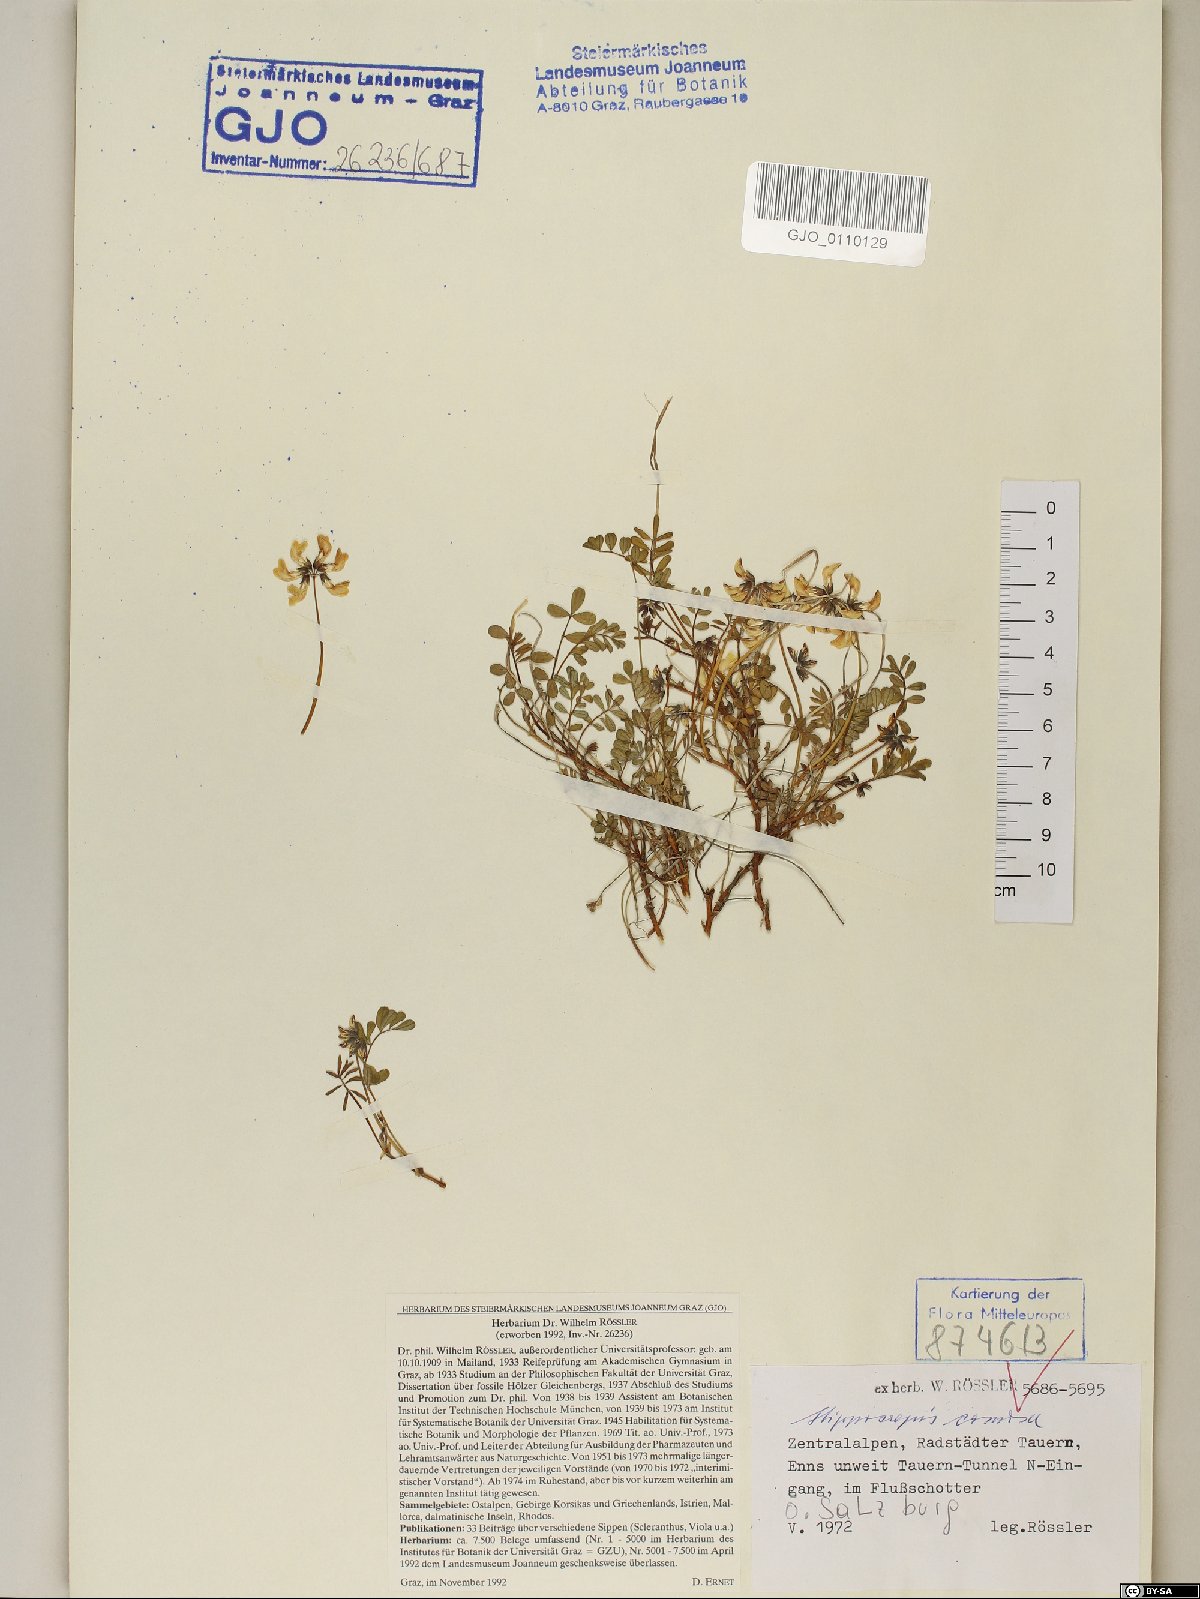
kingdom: Plantae
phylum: Tracheophyta
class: Magnoliopsida
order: Fabales
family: Fabaceae
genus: Hippocrepis
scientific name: Hippocrepis comosa
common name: Horseshoe vetch
